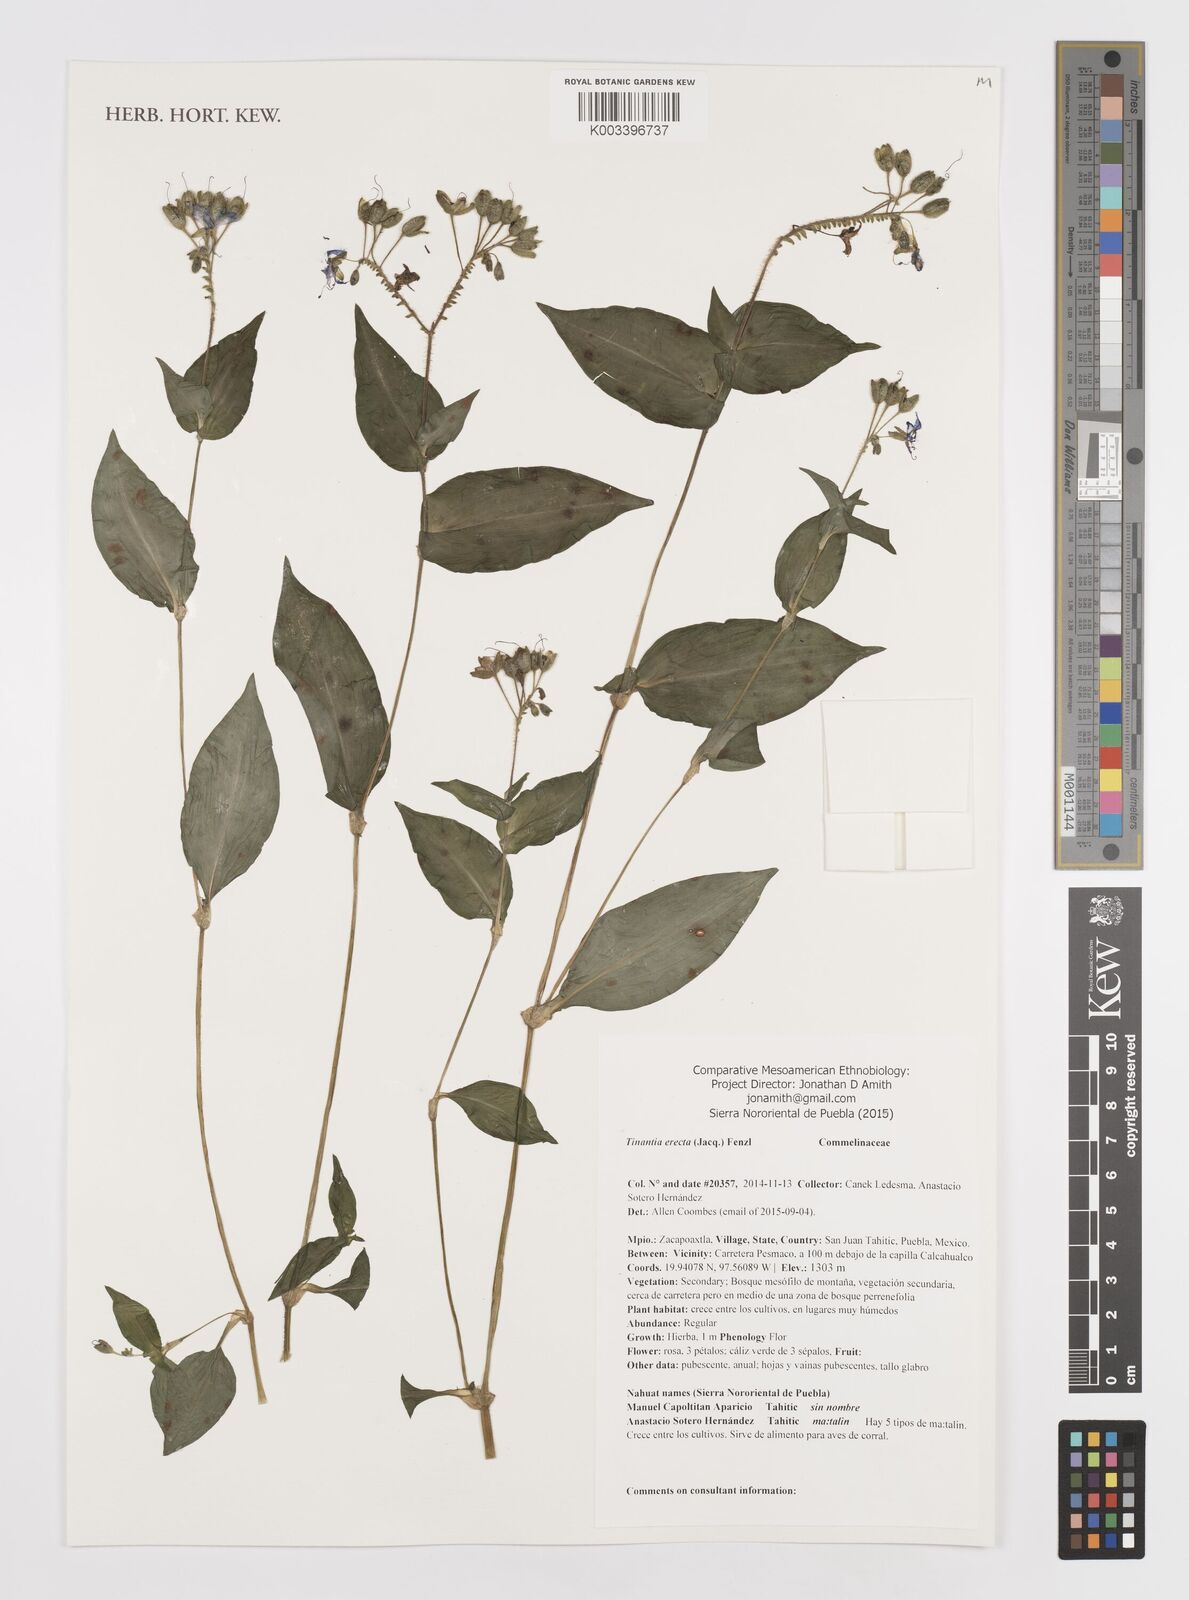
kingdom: Plantae
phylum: Tracheophyta
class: Liliopsida
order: Commelinales
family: Commelinaceae
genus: Tinantia
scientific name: Tinantia erecta
